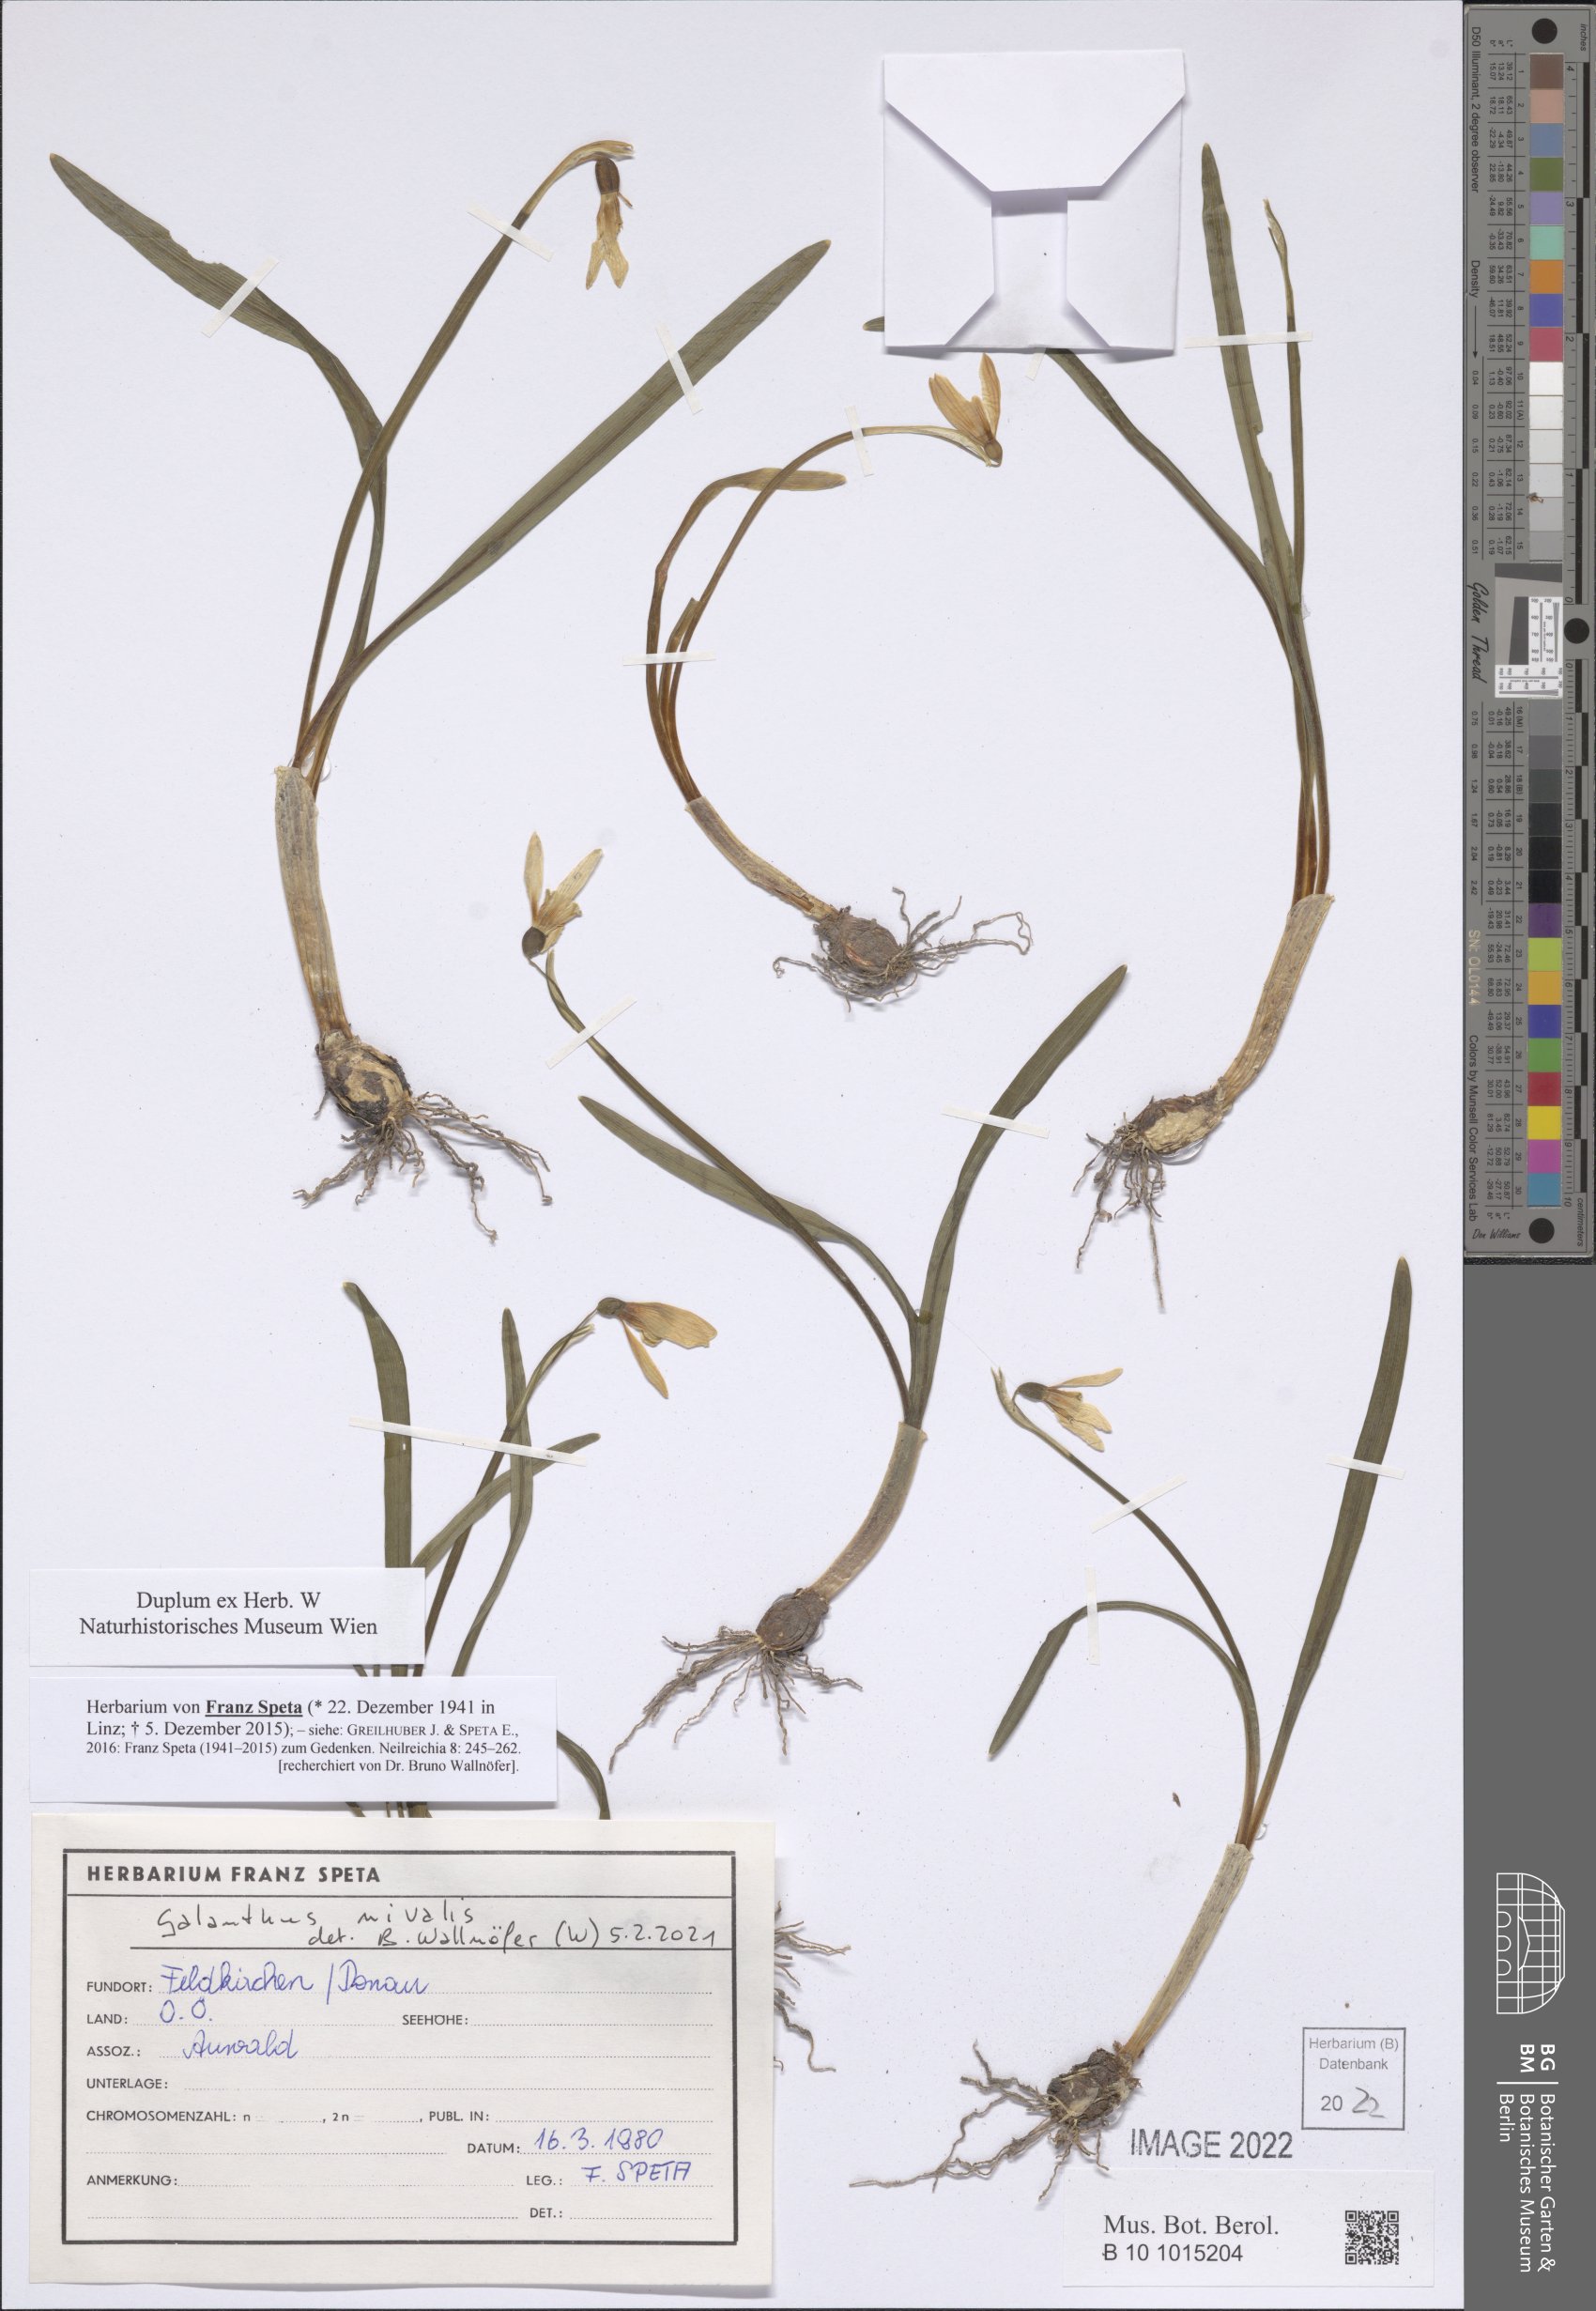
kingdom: Plantae
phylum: Tracheophyta
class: Liliopsida
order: Asparagales
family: Amaryllidaceae
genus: Galanthus
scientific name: Galanthus nivalis
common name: Snowdrop
